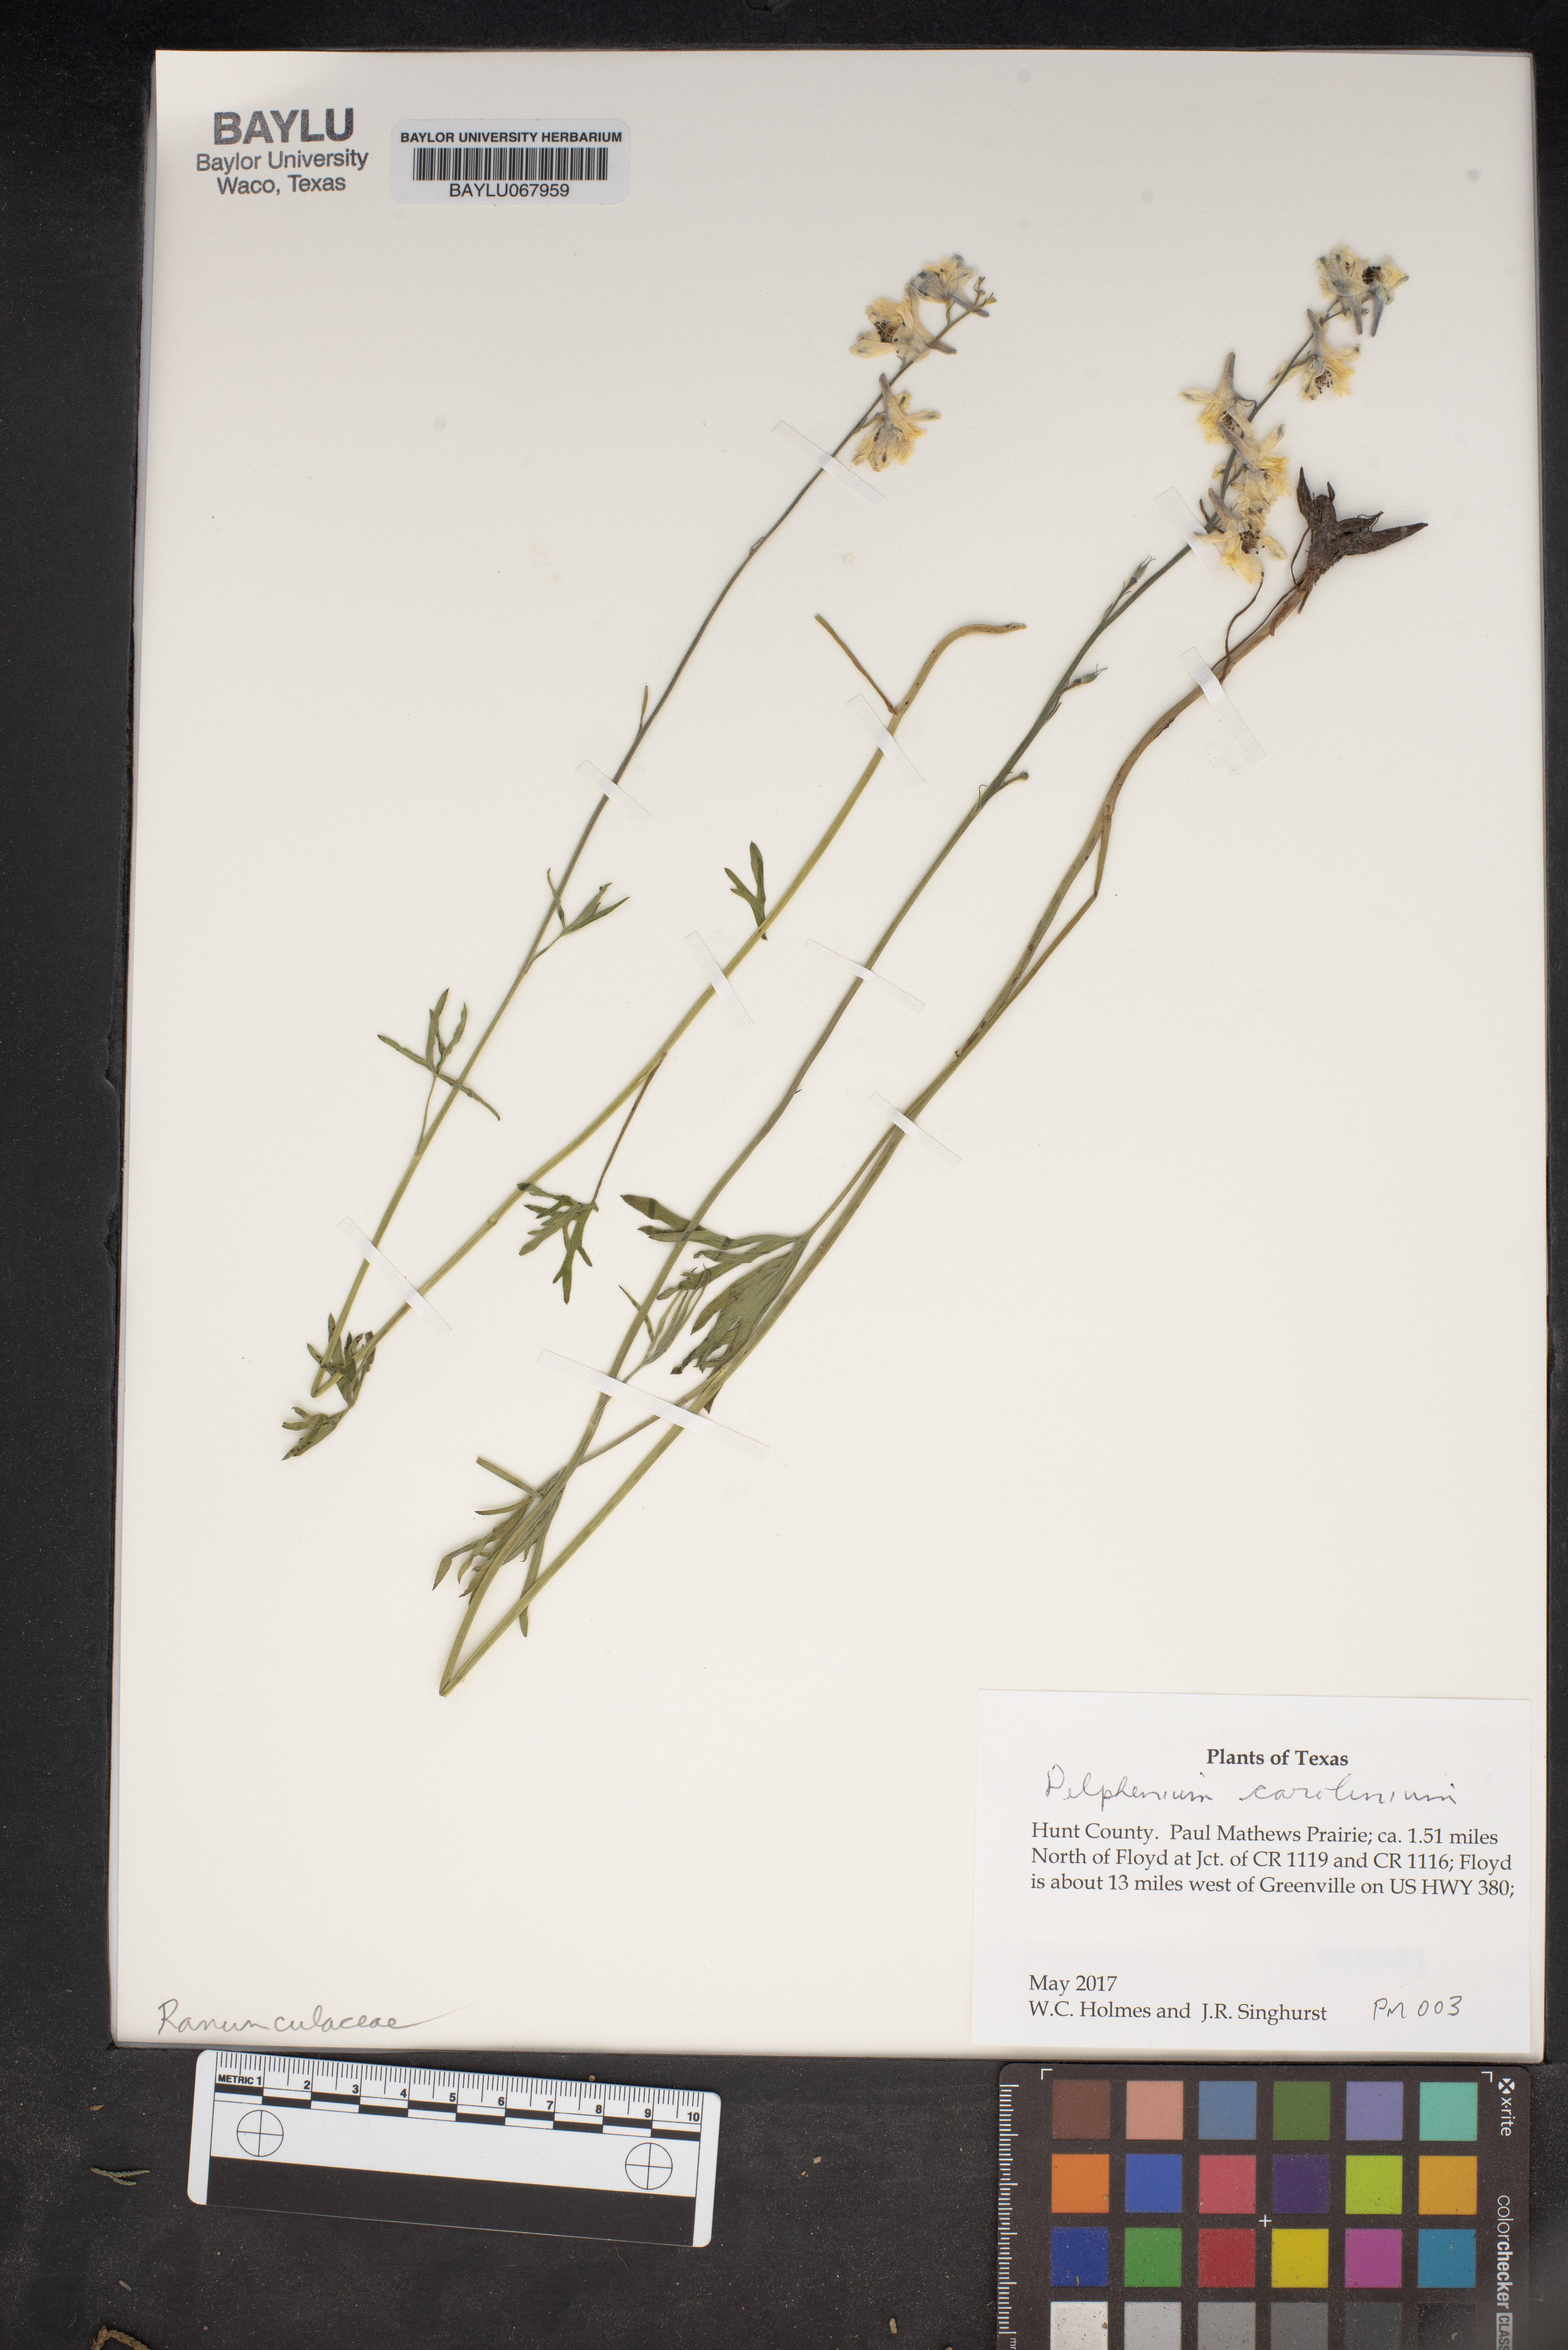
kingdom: Plantae
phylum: Tracheophyta
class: Magnoliopsida
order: Ranunculales
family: Ranunculaceae
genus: Delphinium
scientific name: Delphinium carolinianum
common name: Carolina larkspur
